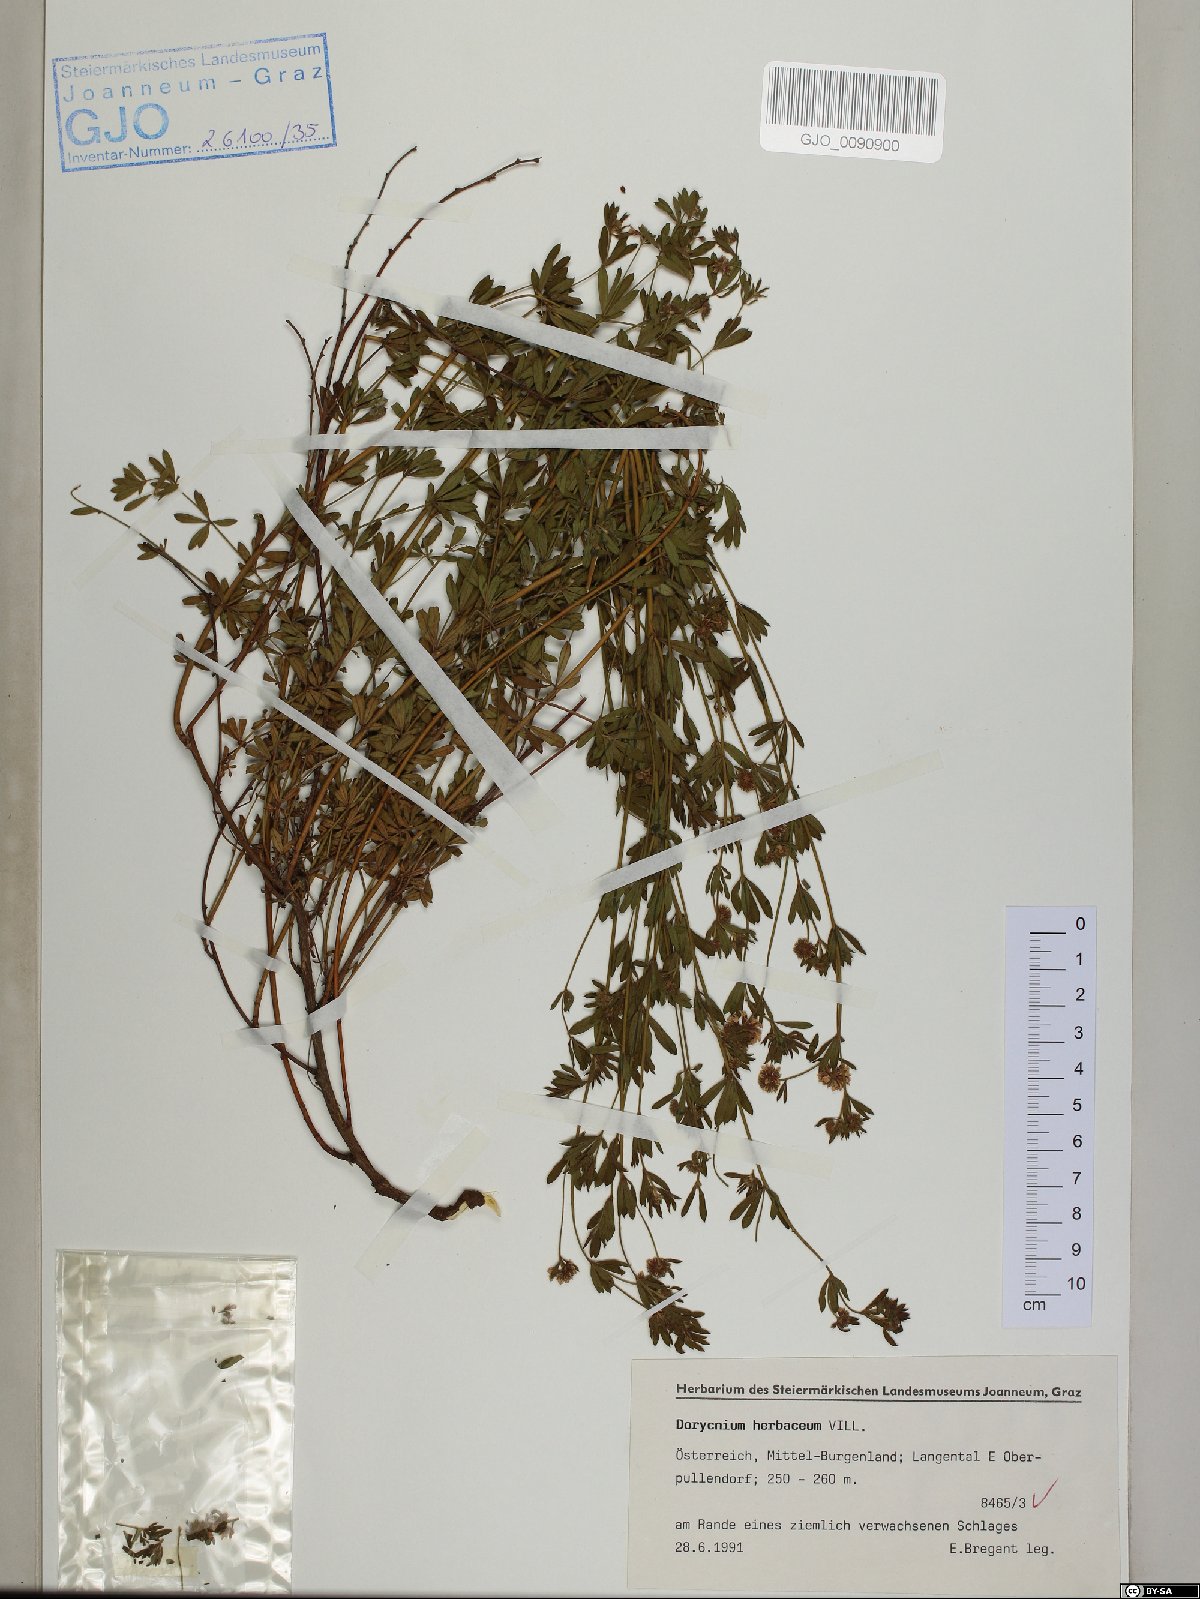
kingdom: Plantae
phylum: Tracheophyta
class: Magnoliopsida
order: Fabales
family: Fabaceae
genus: Lotus
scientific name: Lotus herbaceus
